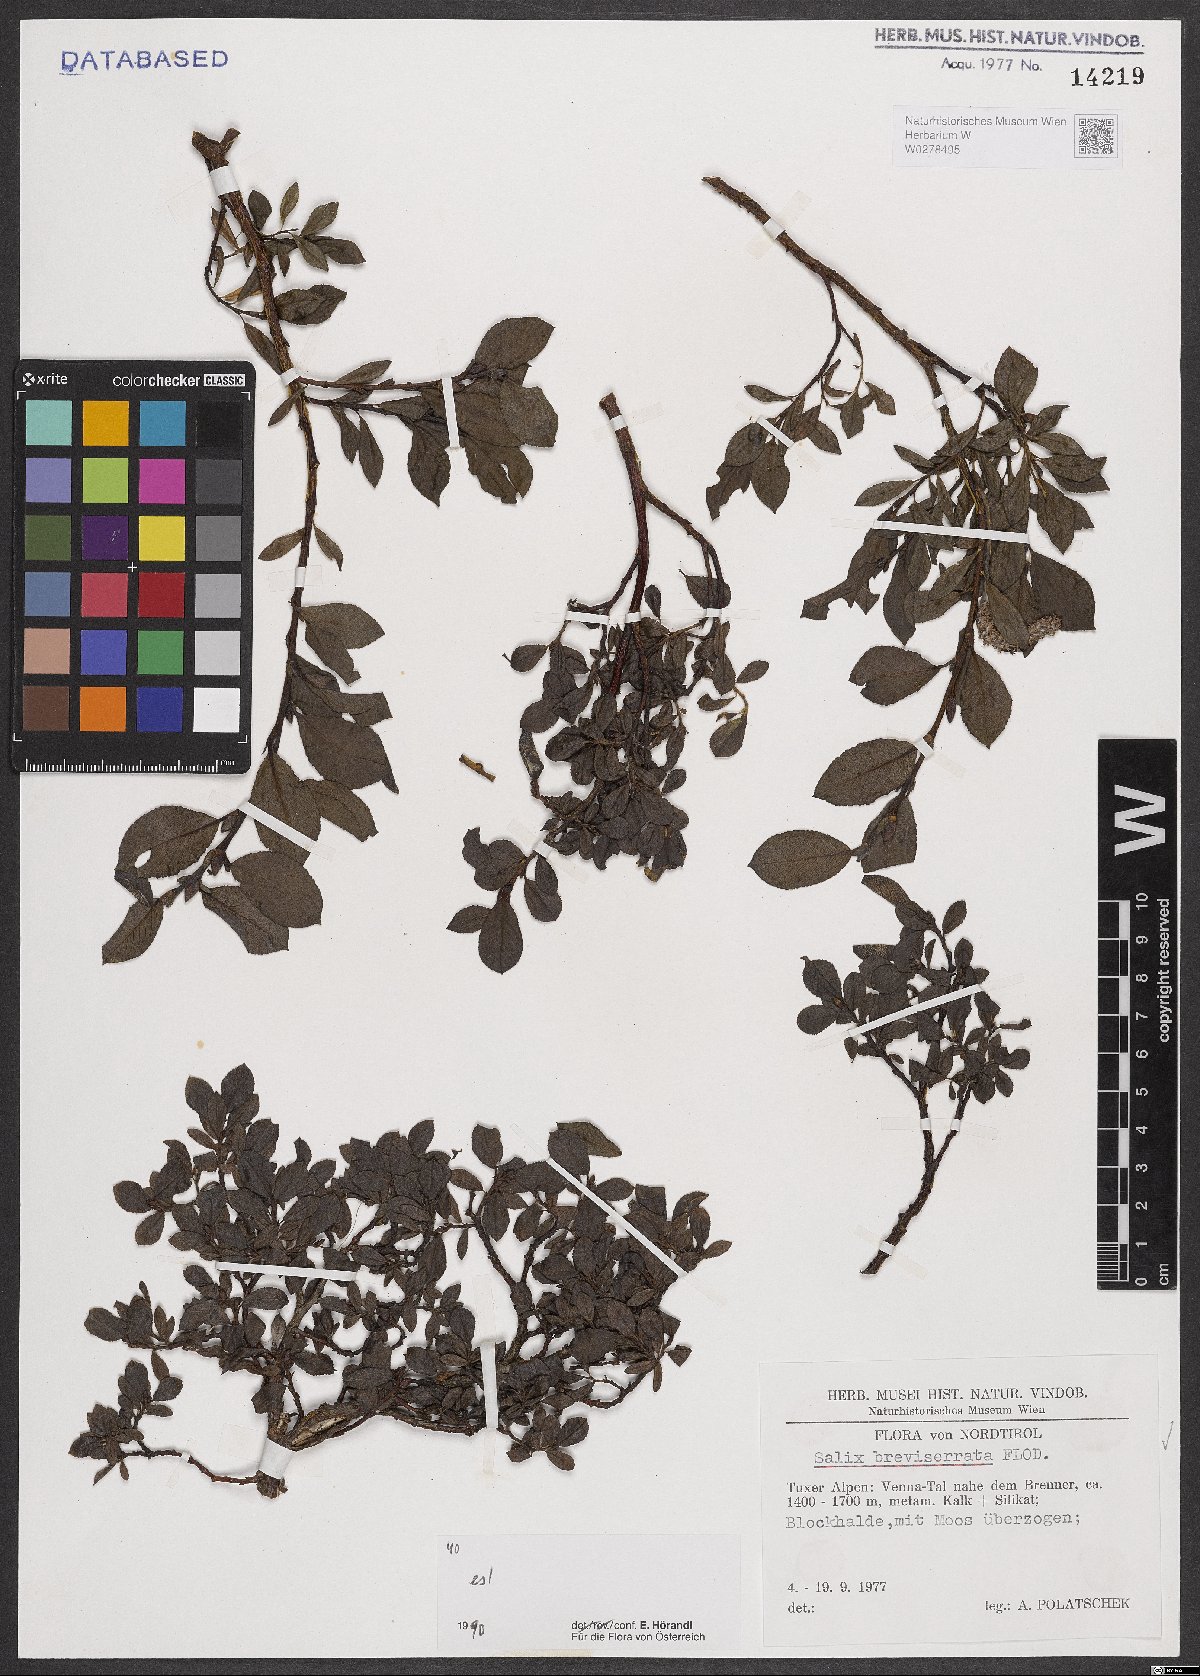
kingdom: Plantae
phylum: Tracheophyta
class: Magnoliopsida
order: Malpighiales
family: Salicaceae
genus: Salix
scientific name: Salix breviserrata
